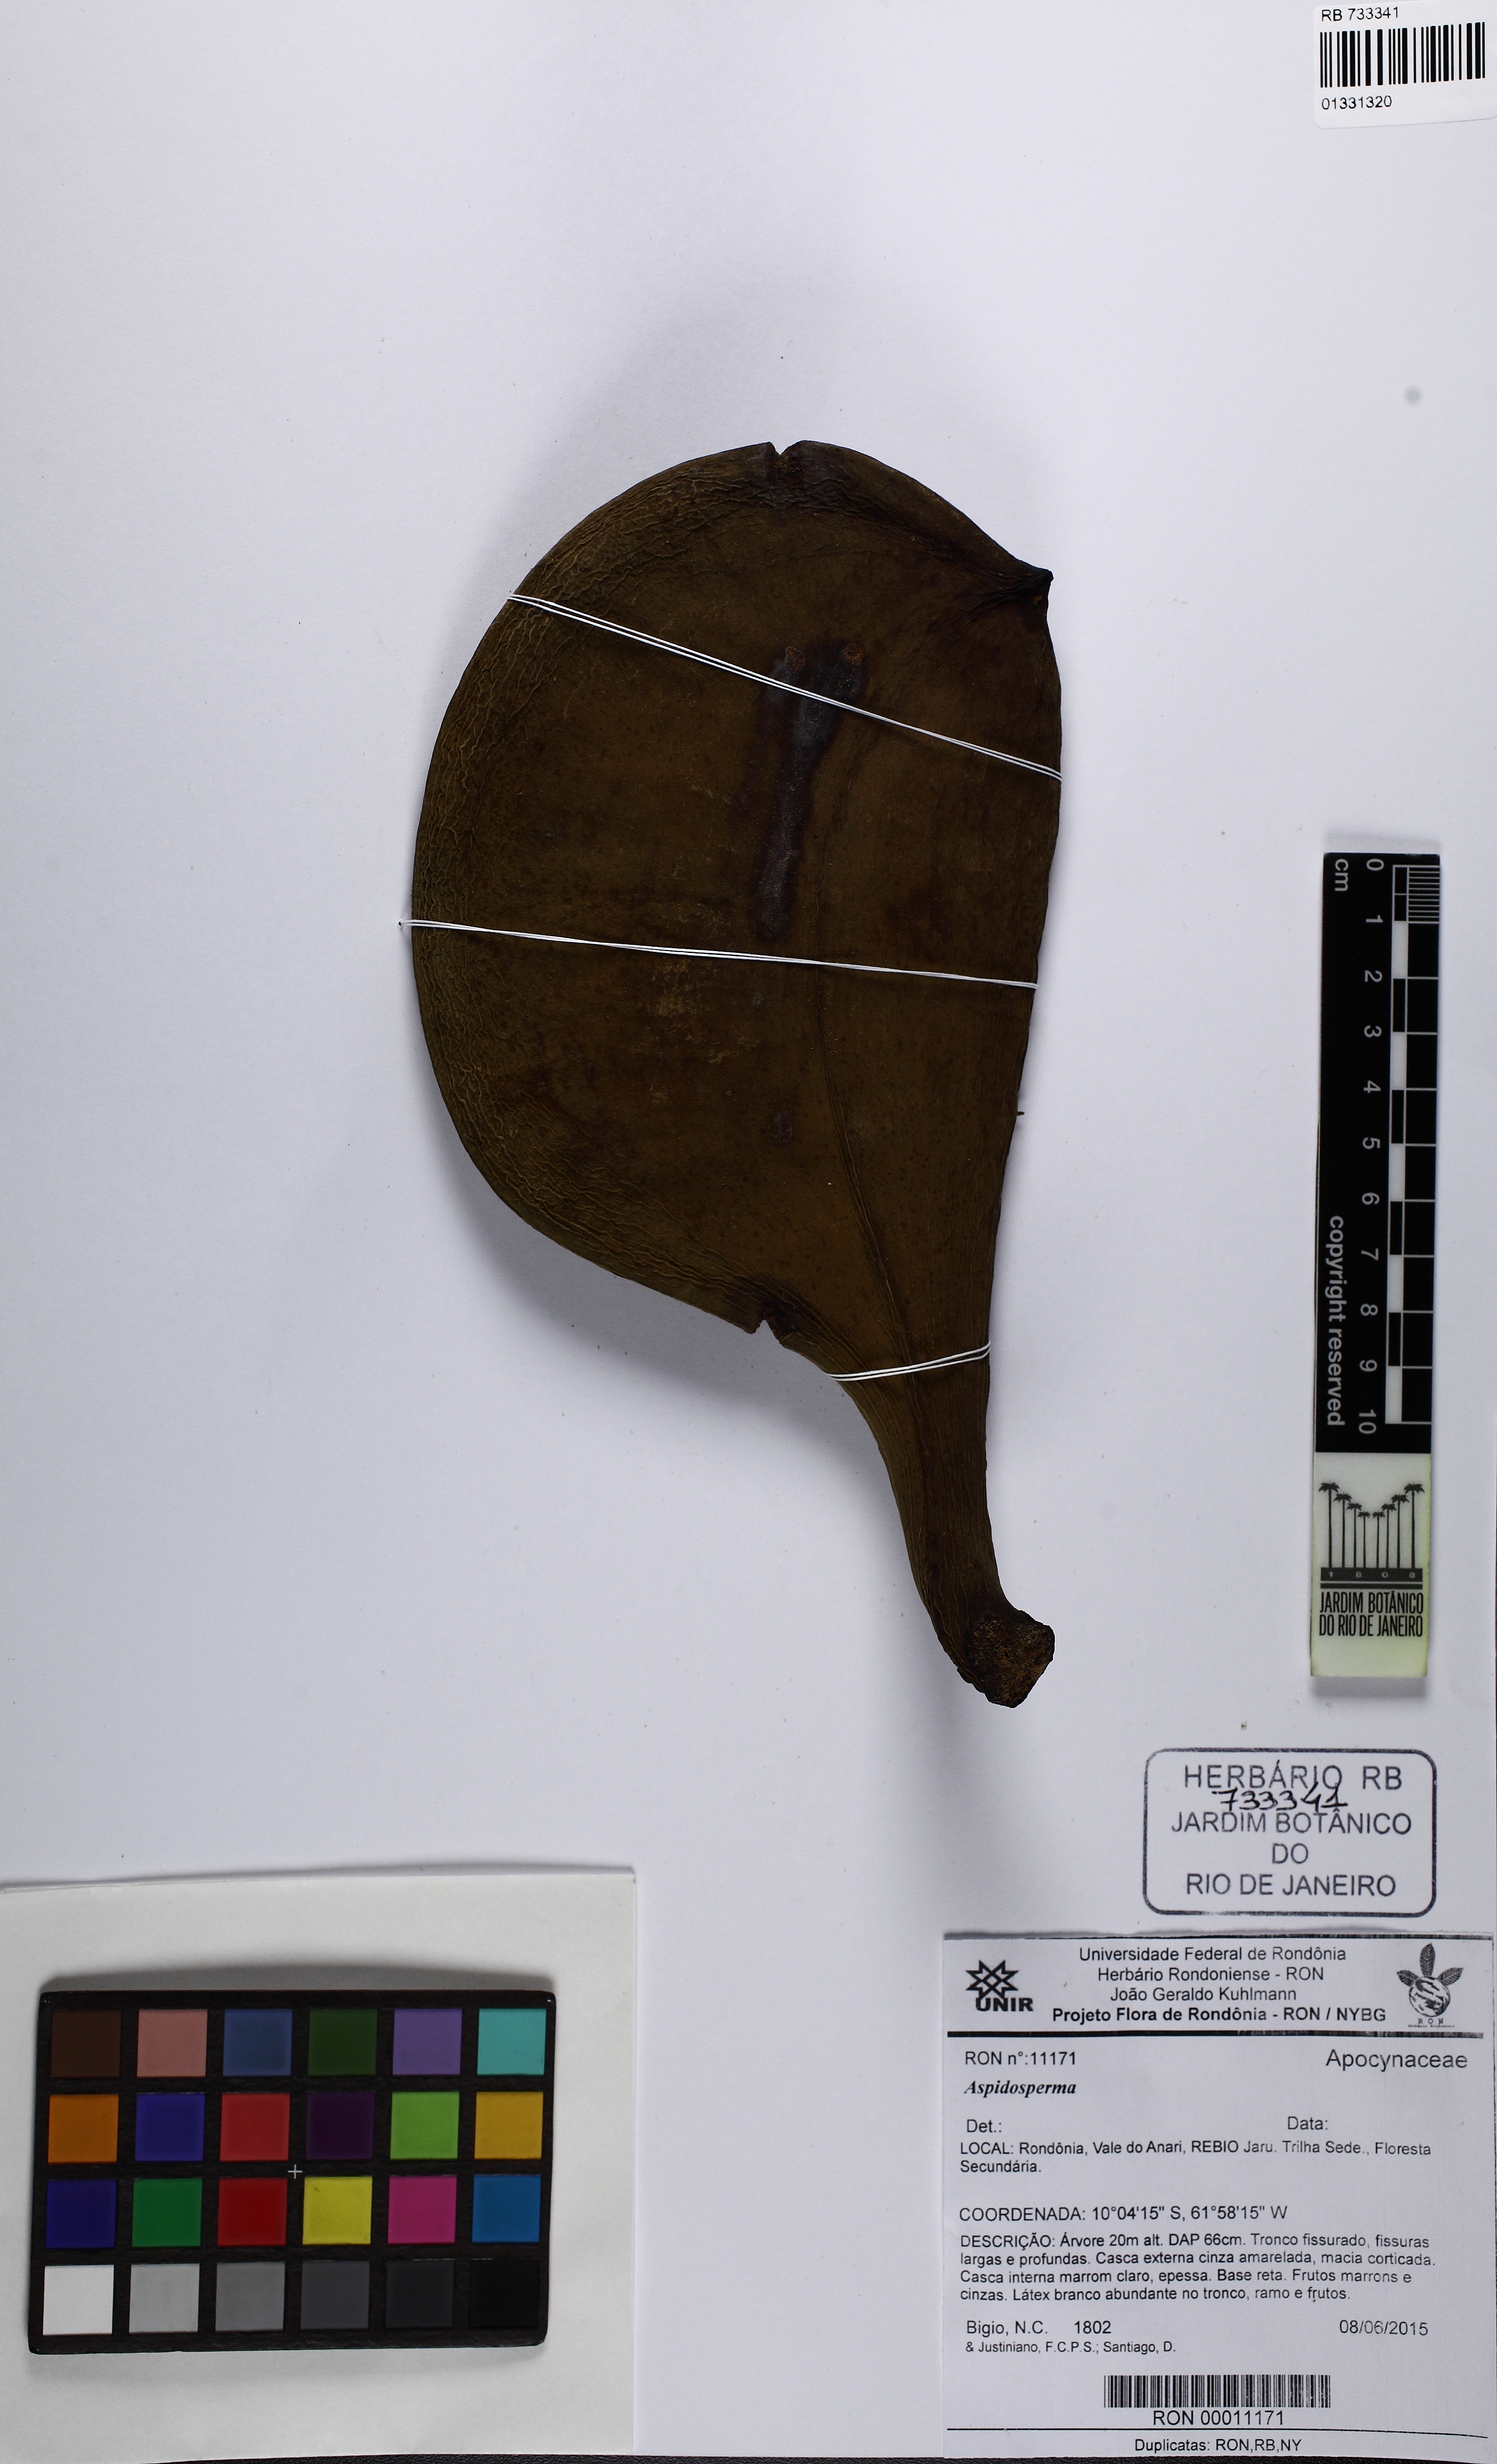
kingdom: Plantae
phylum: Tracheophyta
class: Magnoliopsida
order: Gentianales
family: Apocynaceae
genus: Aspidosperma
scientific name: Aspidosperma macrocarpon
